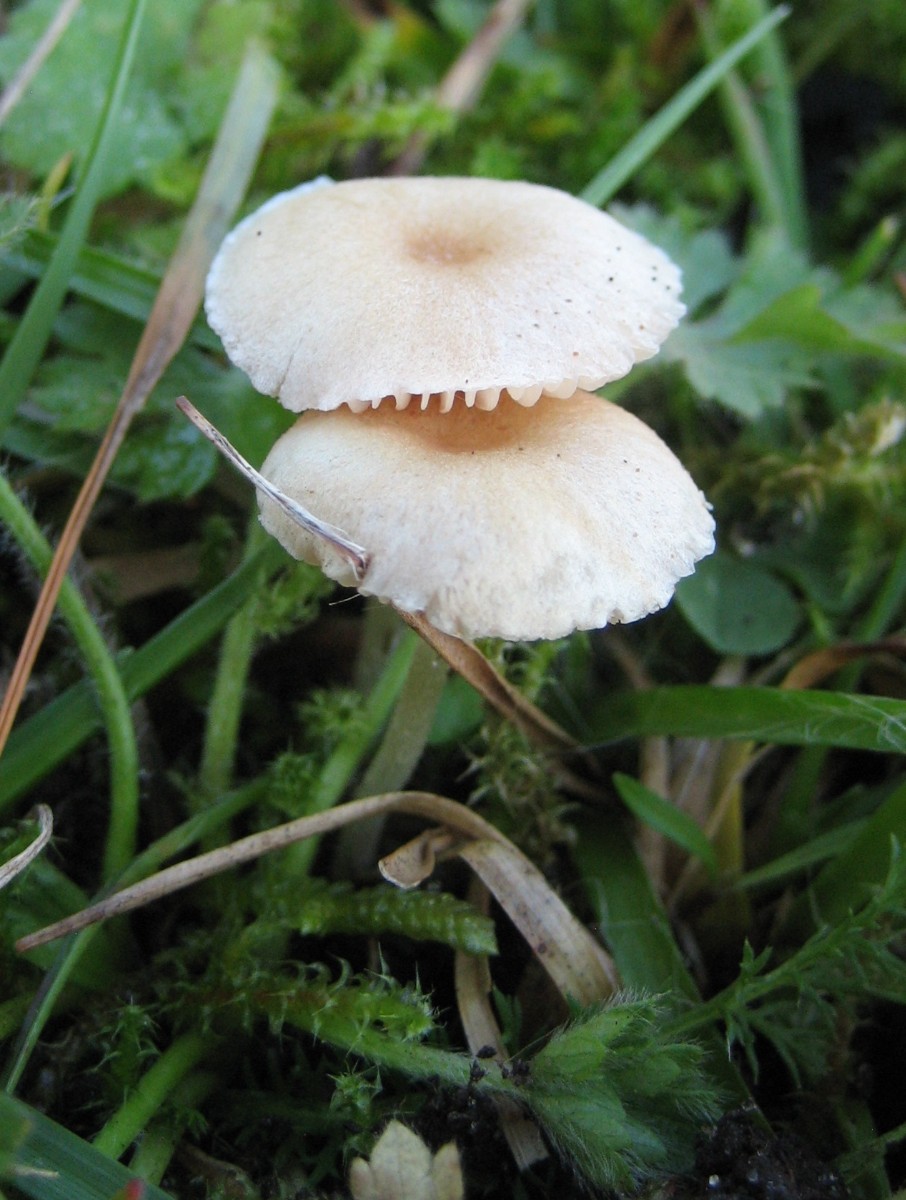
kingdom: Fungi
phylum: Basidiomycota
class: Agaricomycetes
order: Agaricales
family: Entolomataceae
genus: Entoloma
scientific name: Entoloma sericellum
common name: silkehvid rødblad
